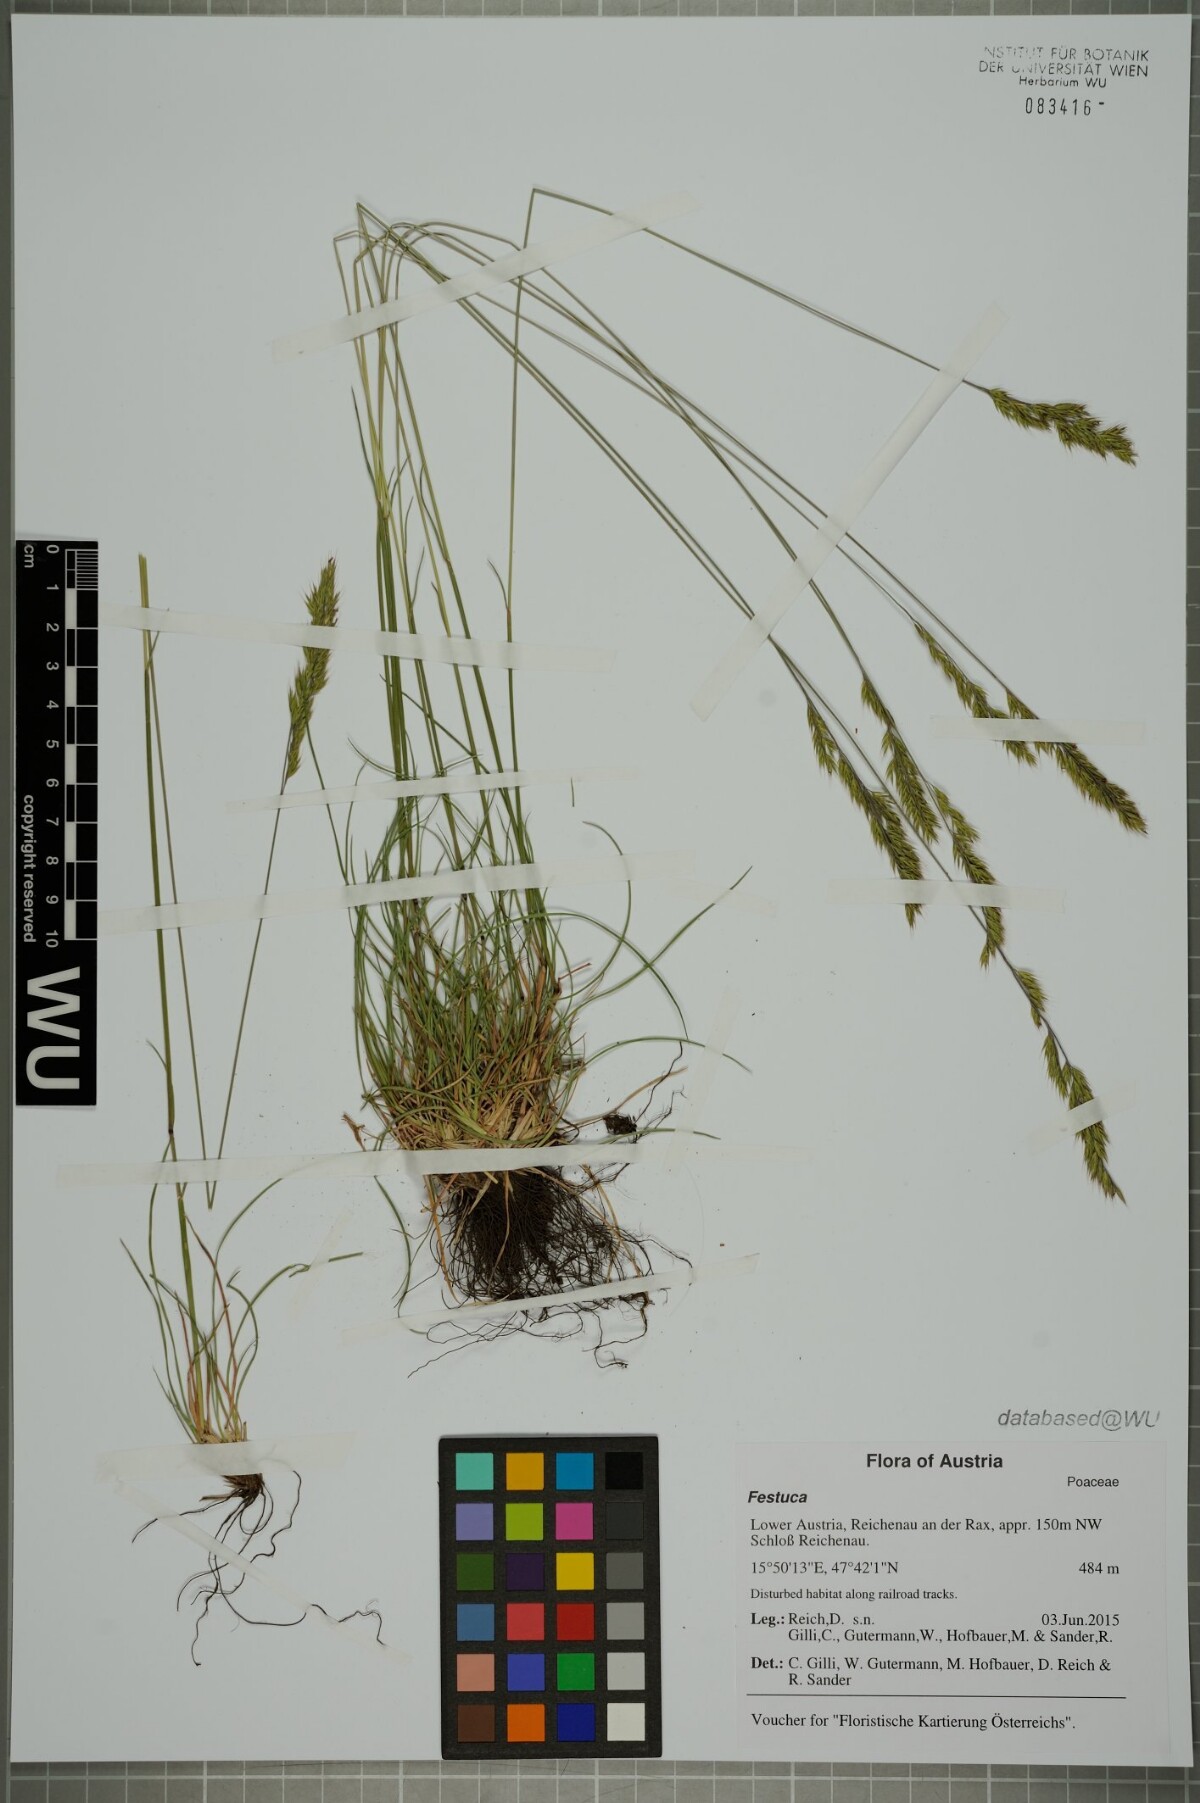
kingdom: Plantae
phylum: Tracheophyta
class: Liliopsida
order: Poales
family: Poaceae
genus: Festuca
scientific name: Festuca
